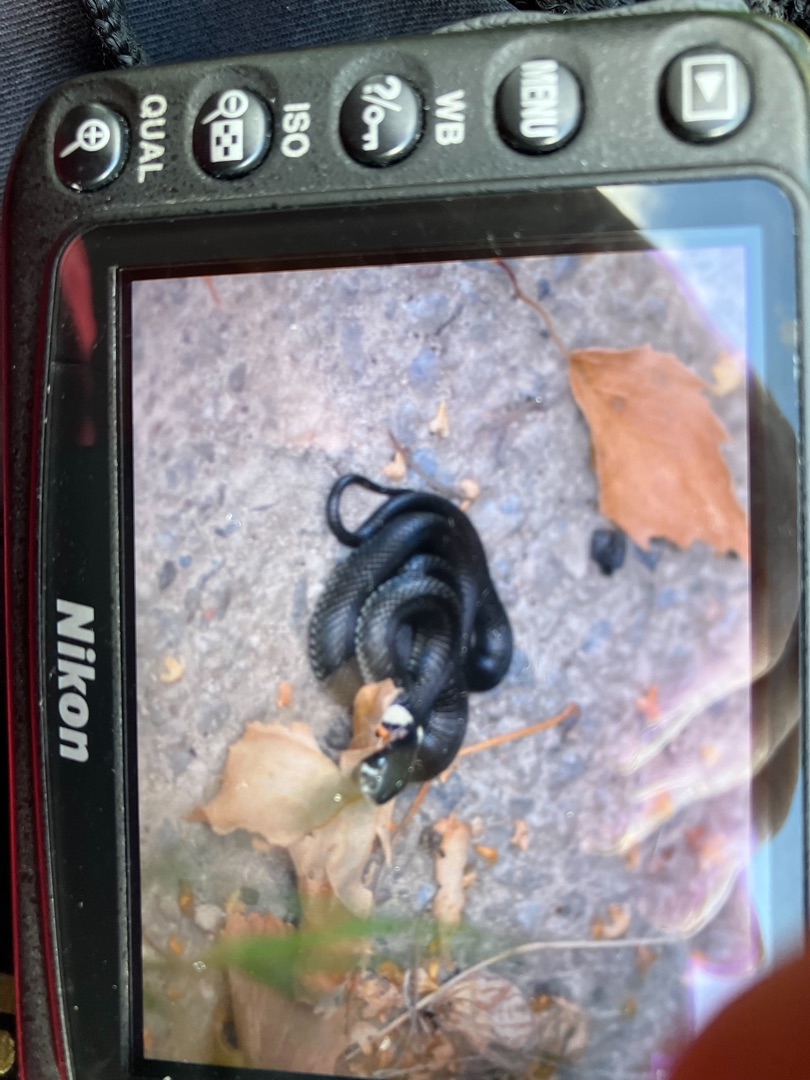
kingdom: Animalia
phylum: Chordata
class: Squamata
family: Colubridae
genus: Natrix
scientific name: Natrix natrix
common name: Snog
